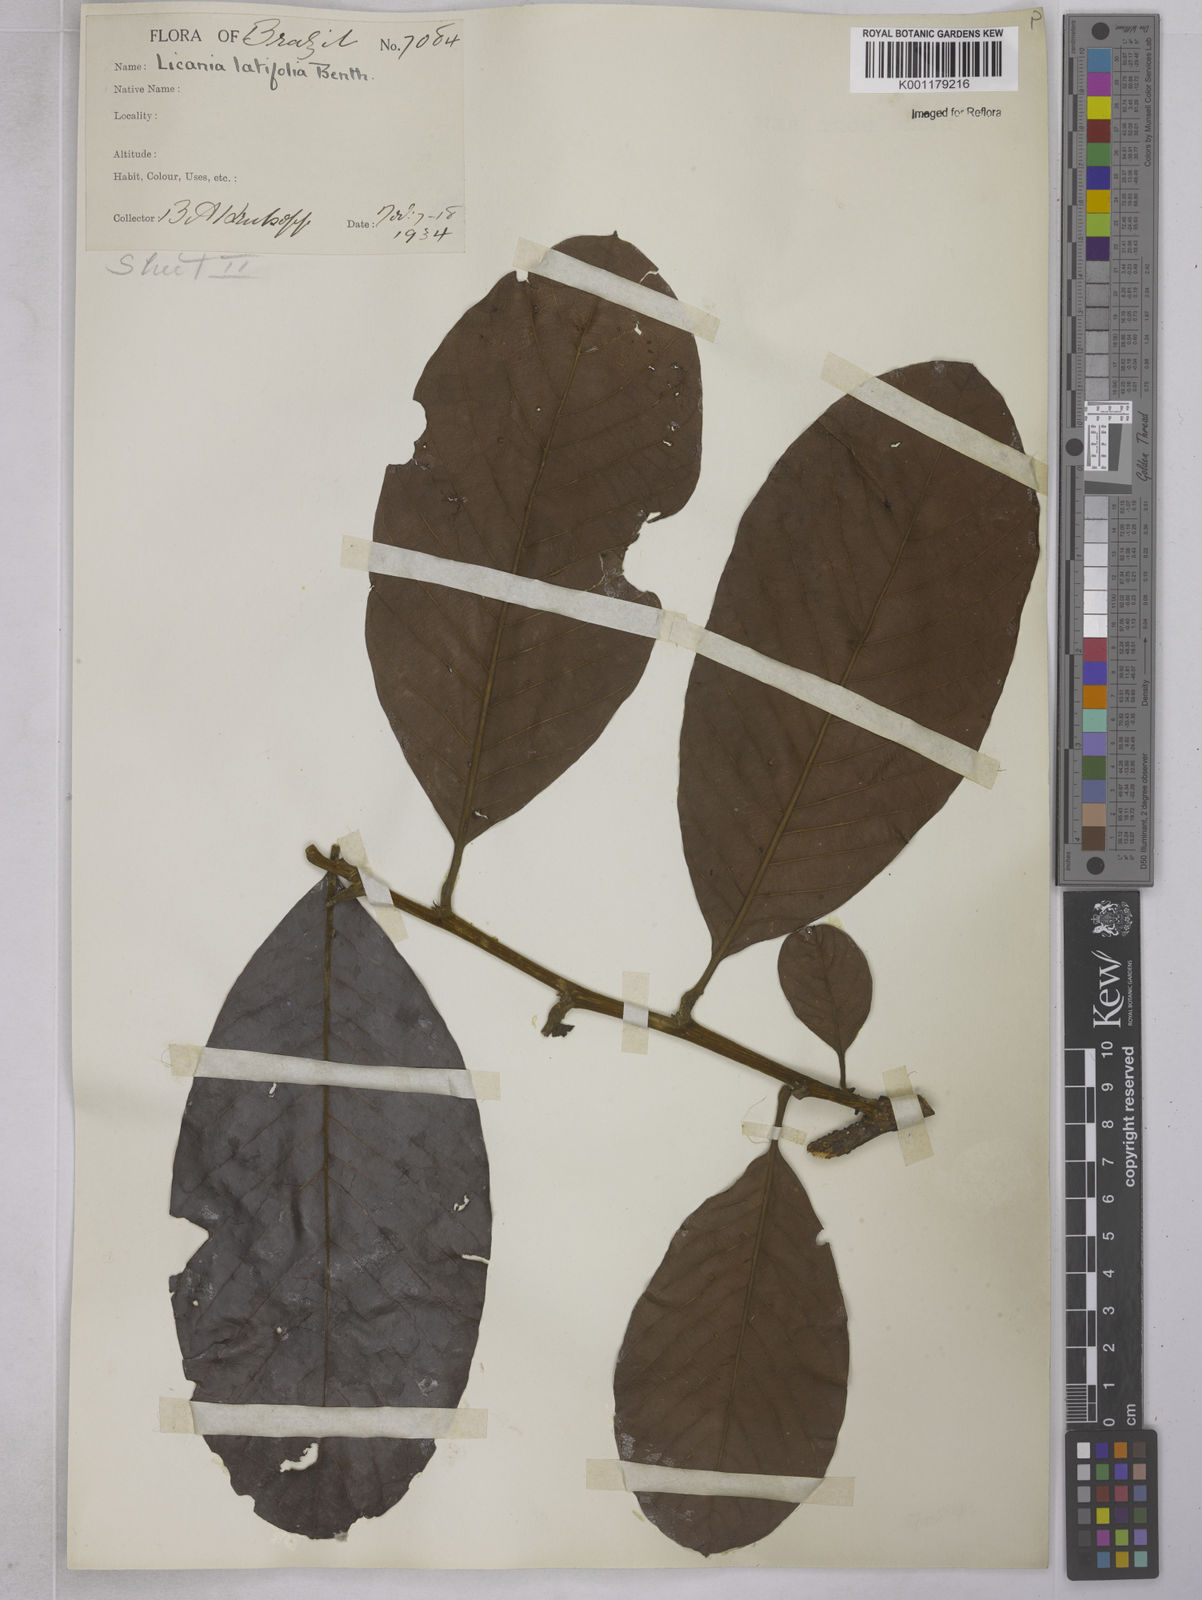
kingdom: Plantae
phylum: Tracheophyta
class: Magnoliopsida
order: Malpighiales
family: Chrysobalanaceae
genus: Hymenopus
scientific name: Hymenopus latifolius
